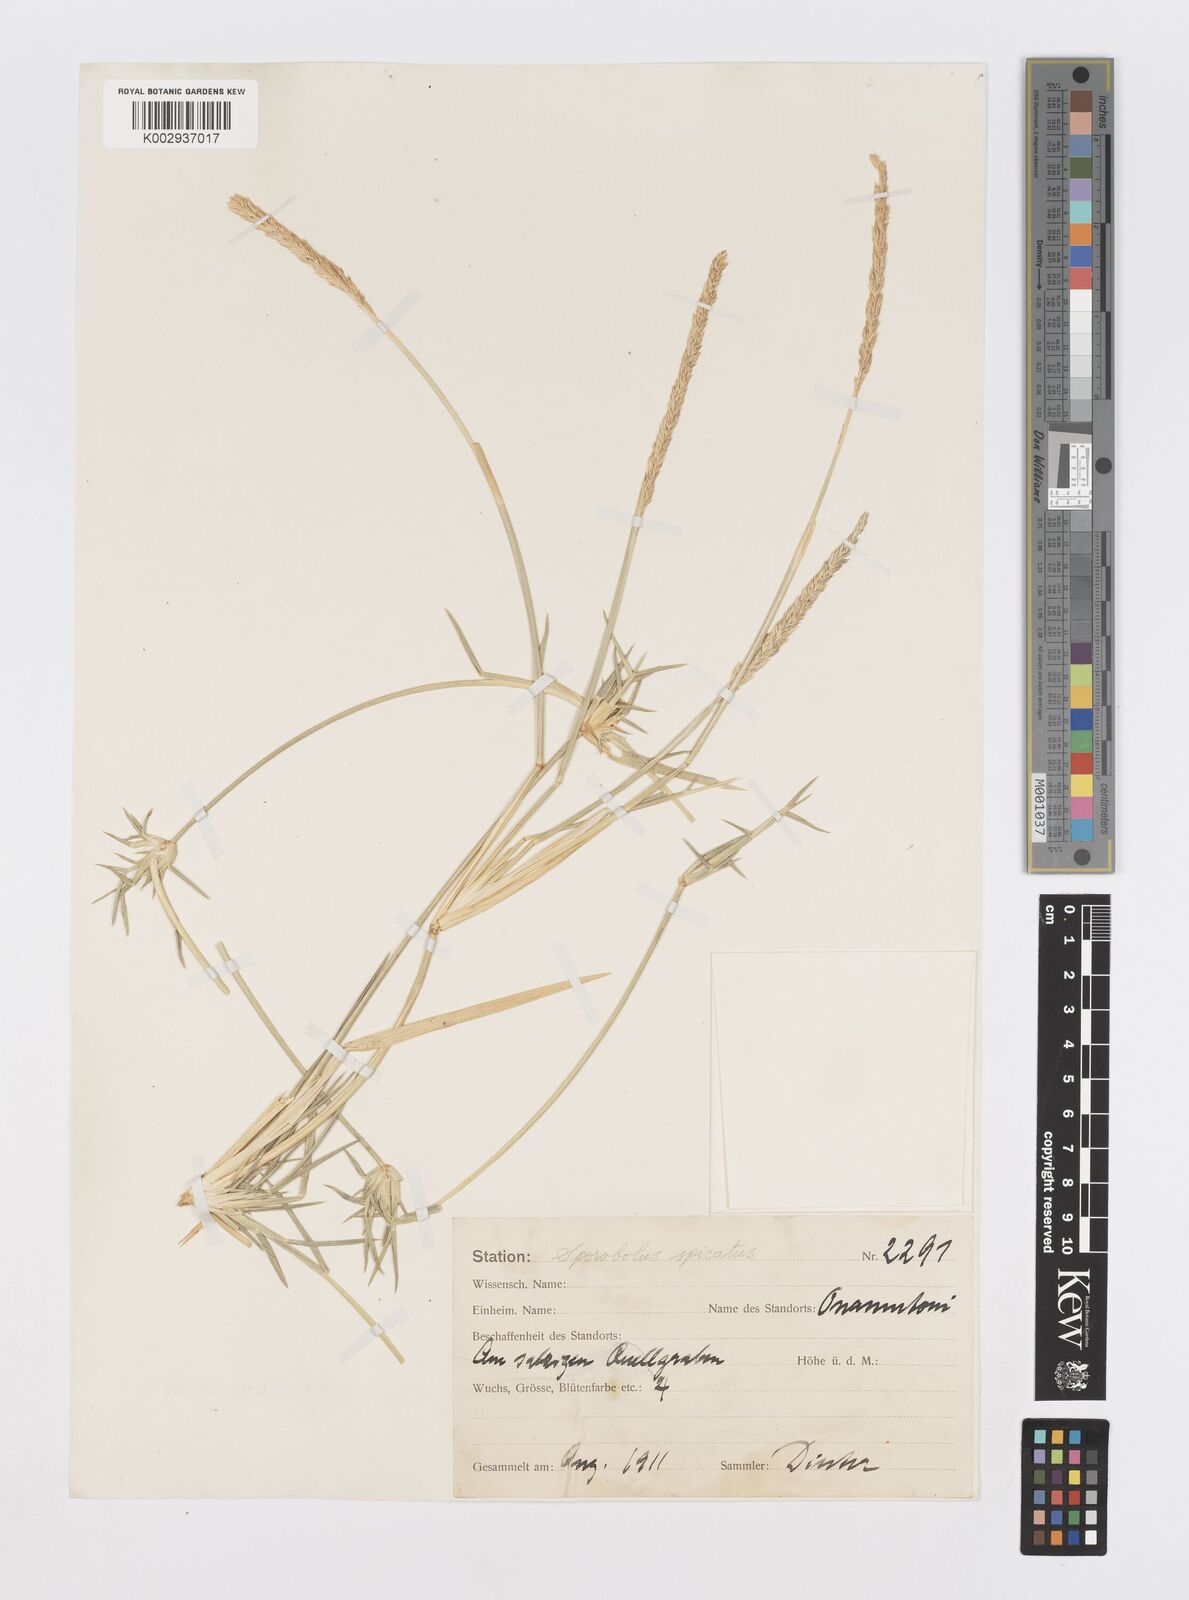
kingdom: Plantae
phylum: Tracheophyta
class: Liliopsida
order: Poales
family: Poaceae
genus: Sporobolus
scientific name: Sporobolus spicatus
